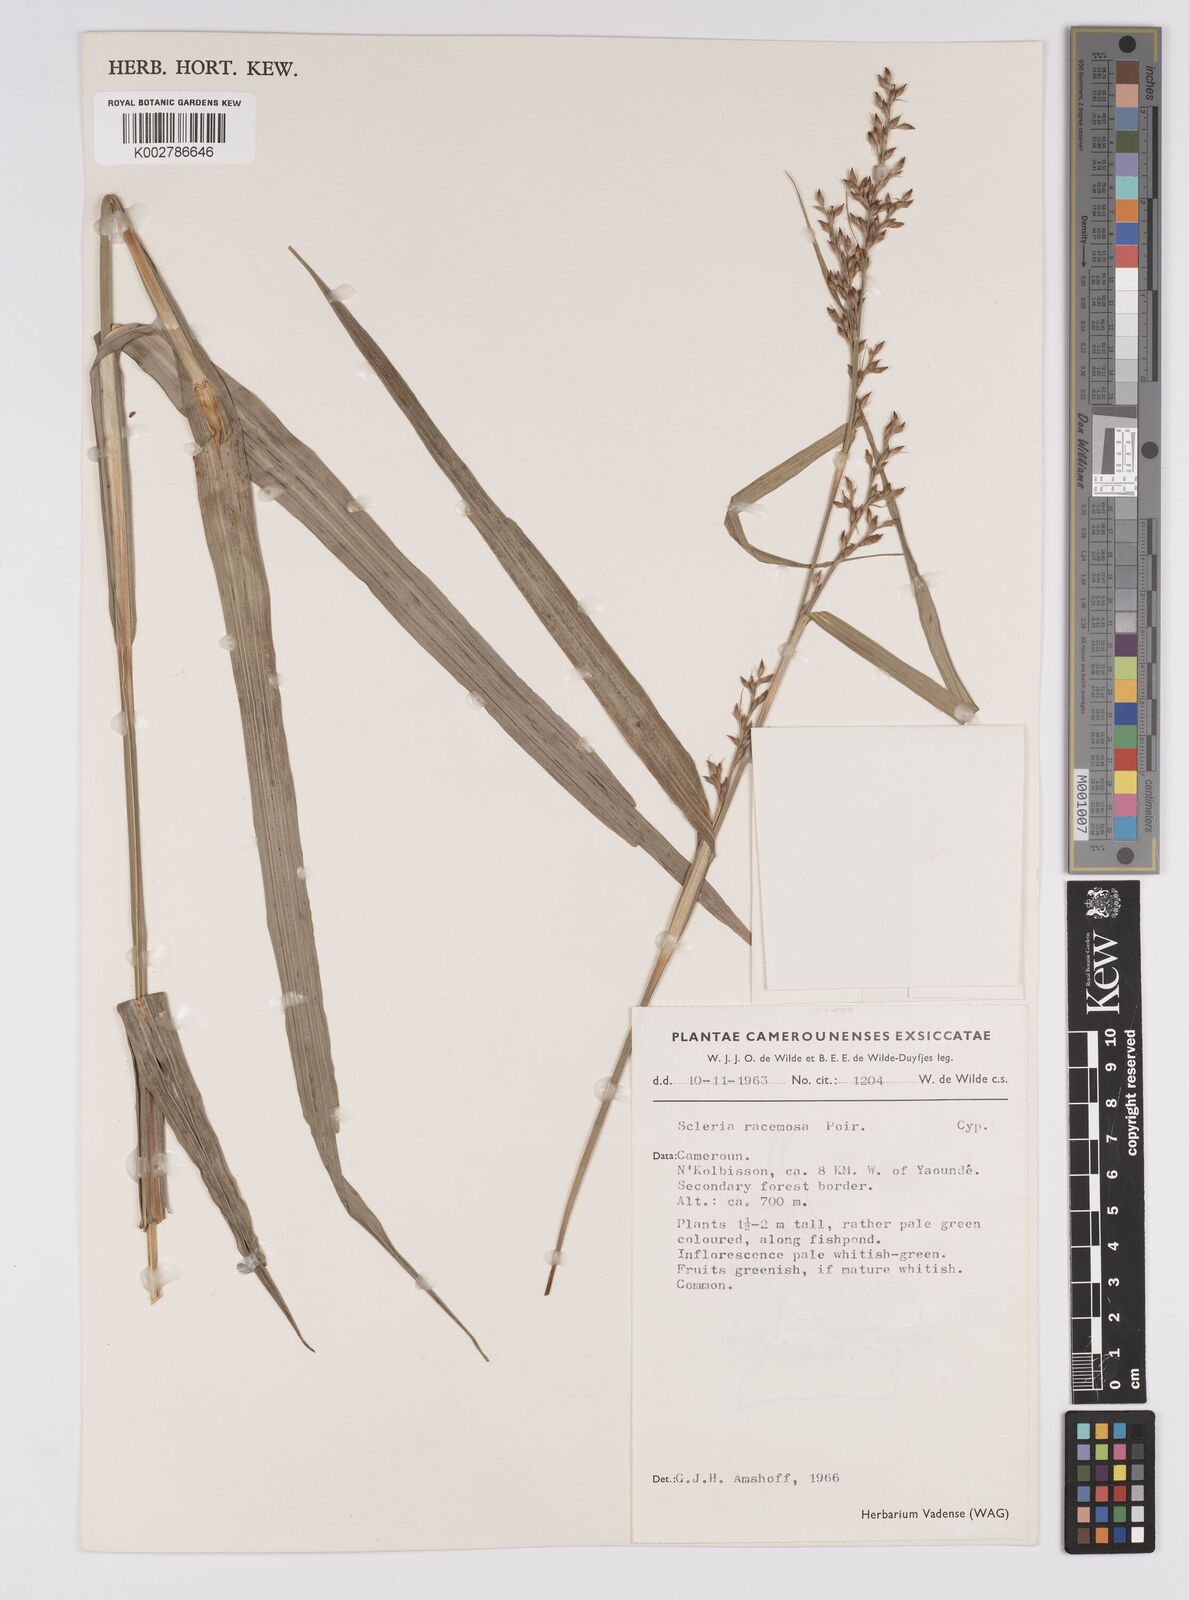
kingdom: Plantae
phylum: Tracheophyta
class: Liliopsida
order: Poales
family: Cyperaceae
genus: Scleria
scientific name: Scleria racemosa
